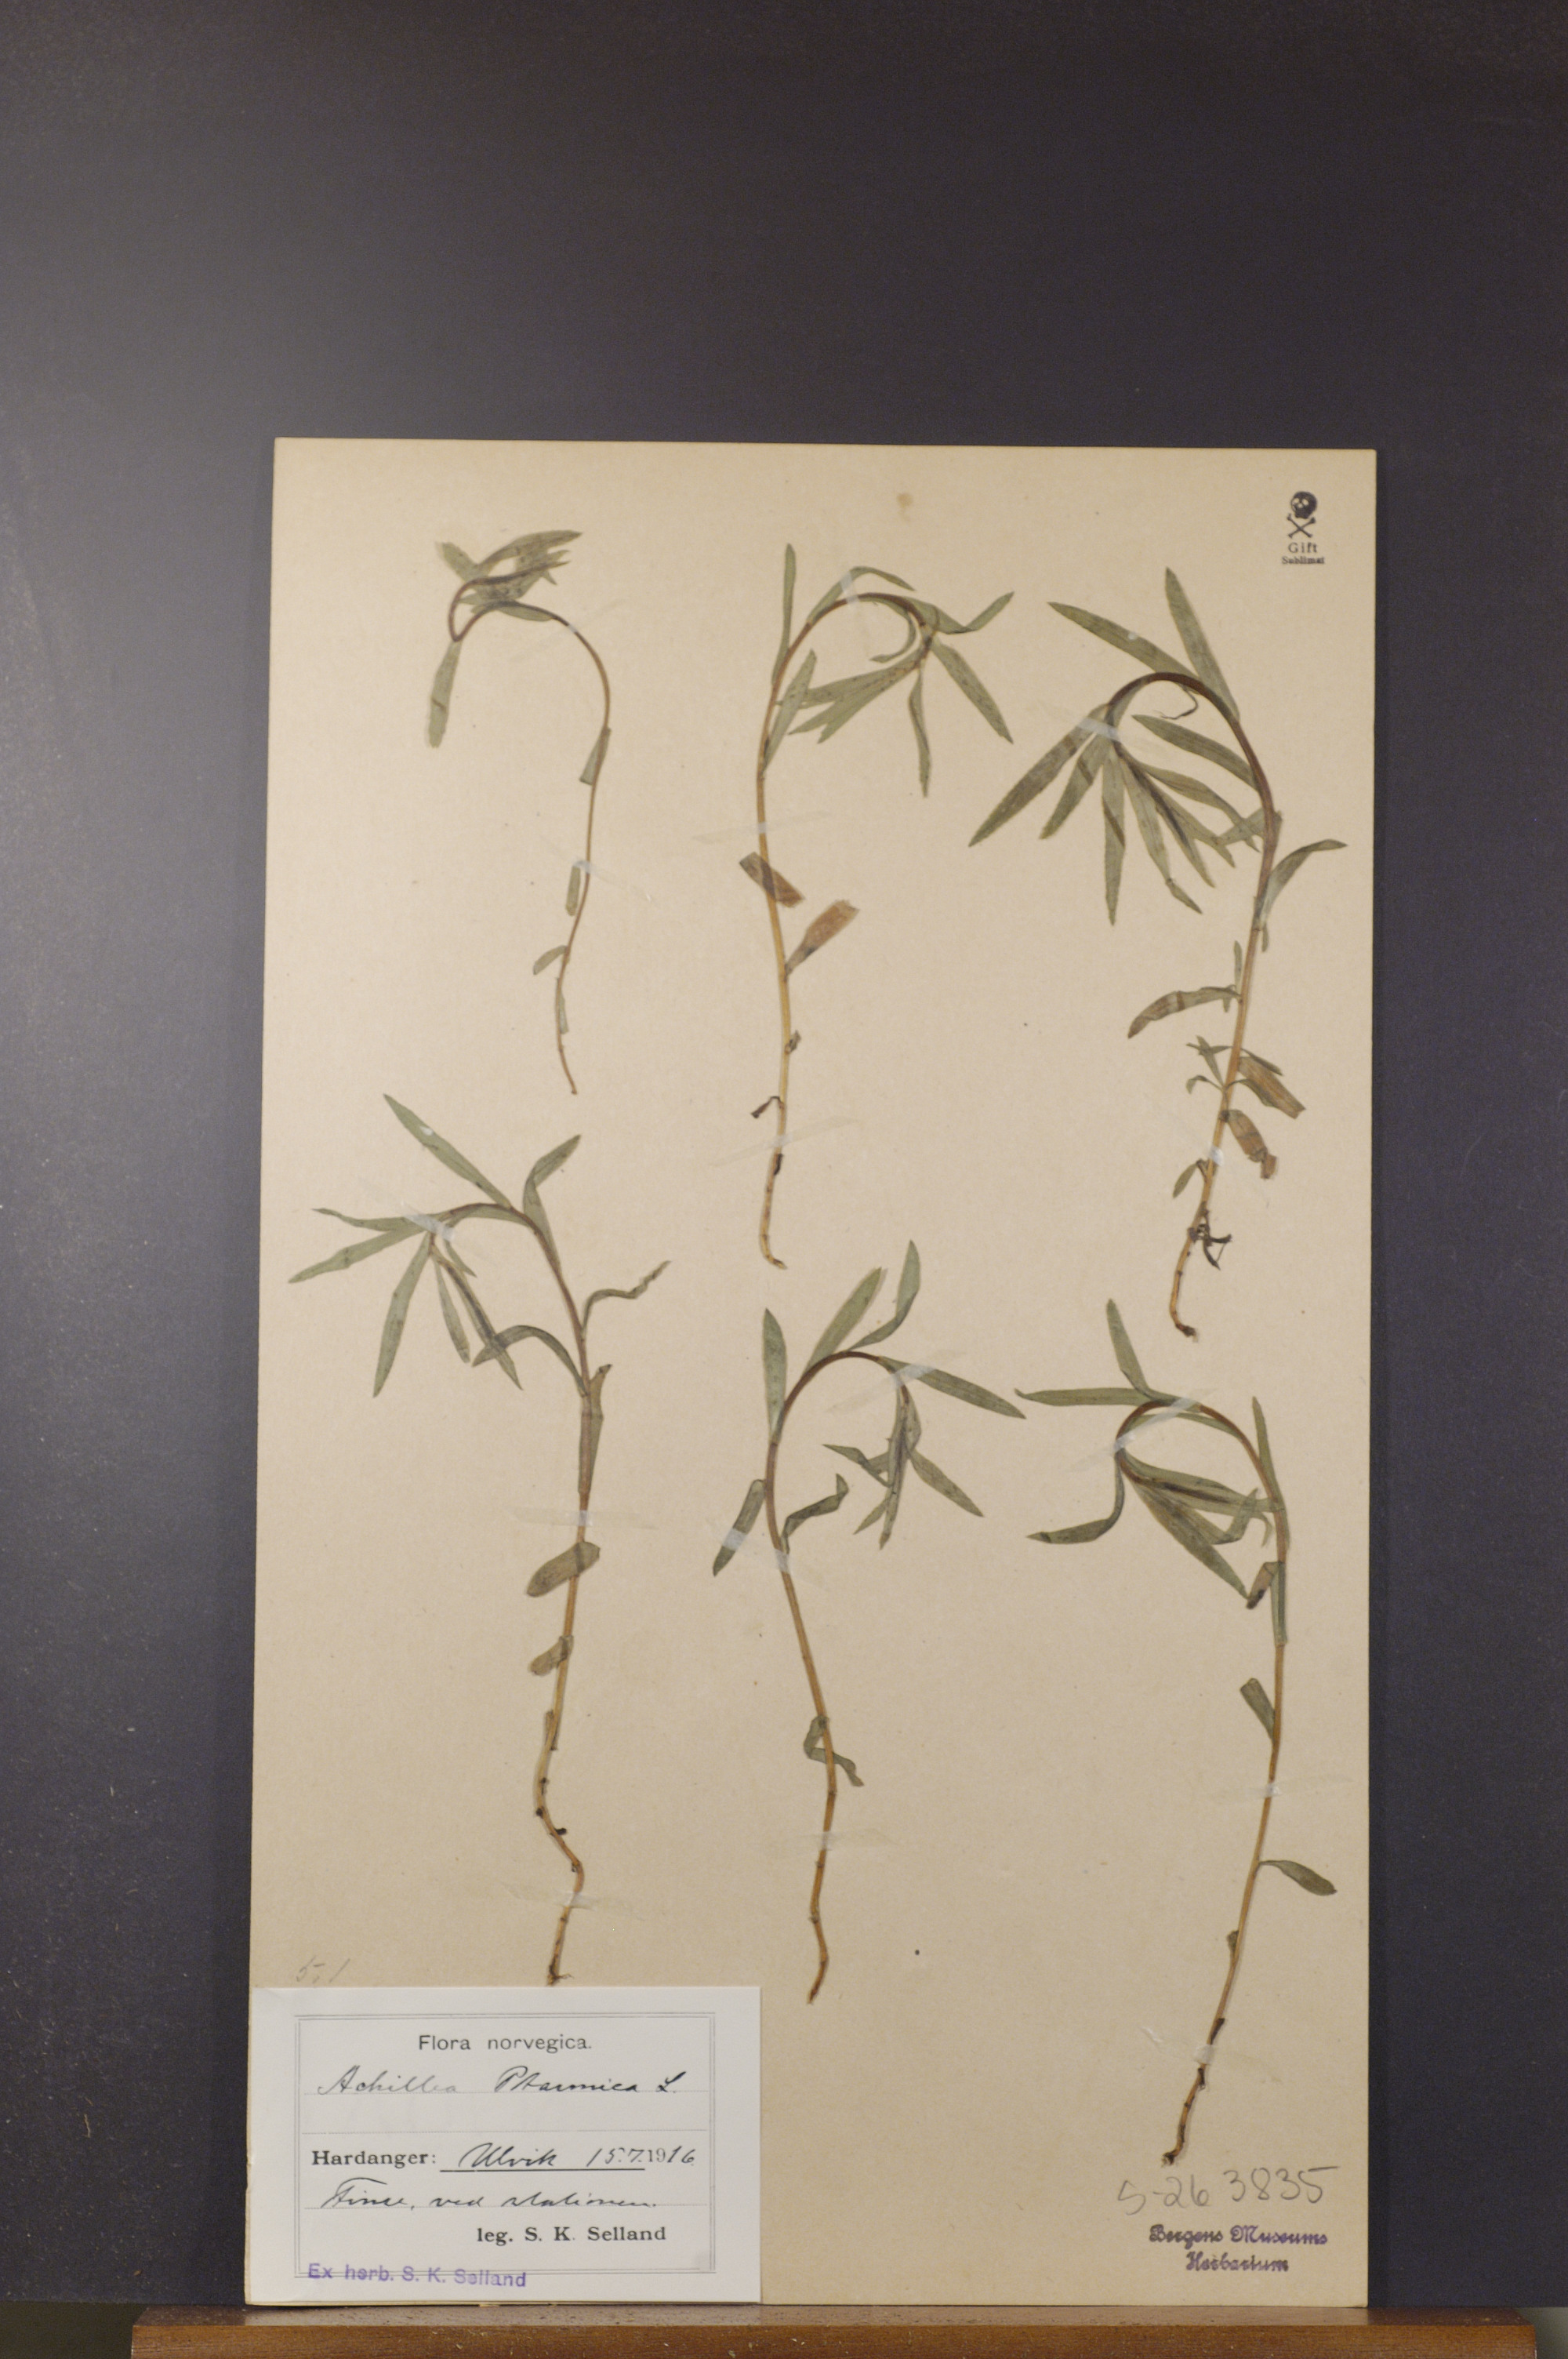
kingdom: Plantae
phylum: Tracheophyta
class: Magnoliopsida
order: Asterales
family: Asteraceae
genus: Achillea
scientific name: Achillea ptarmica
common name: Sneezeweed
